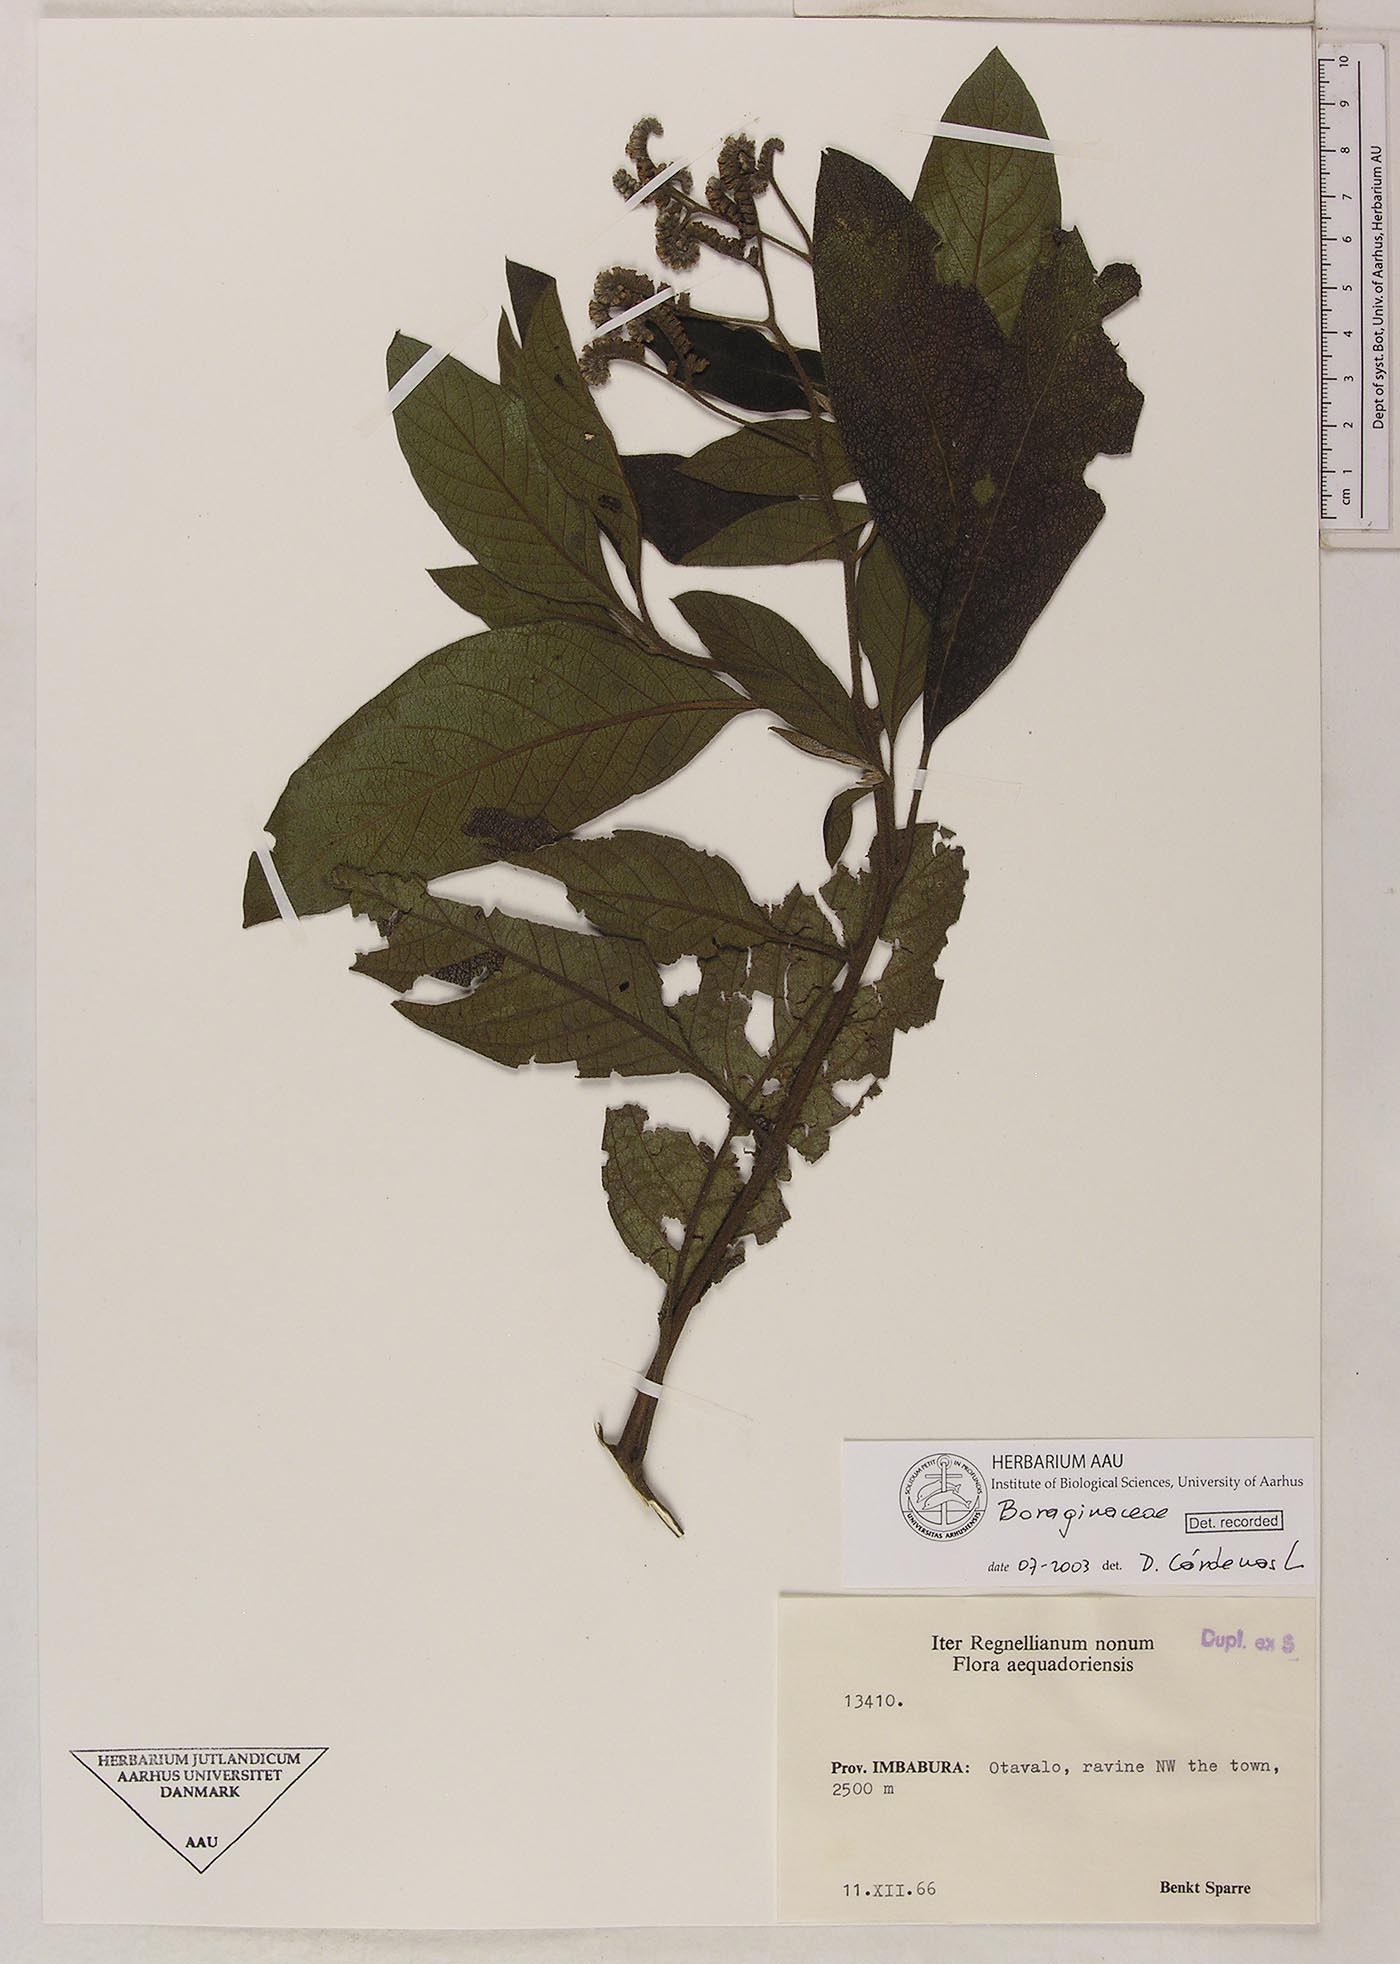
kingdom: Plantae
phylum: Tracheophyta
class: Magnoliopsida
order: Boraginales
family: Heliotropiaceae
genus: Heliotropium
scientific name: Heliotropium brevilobatum
